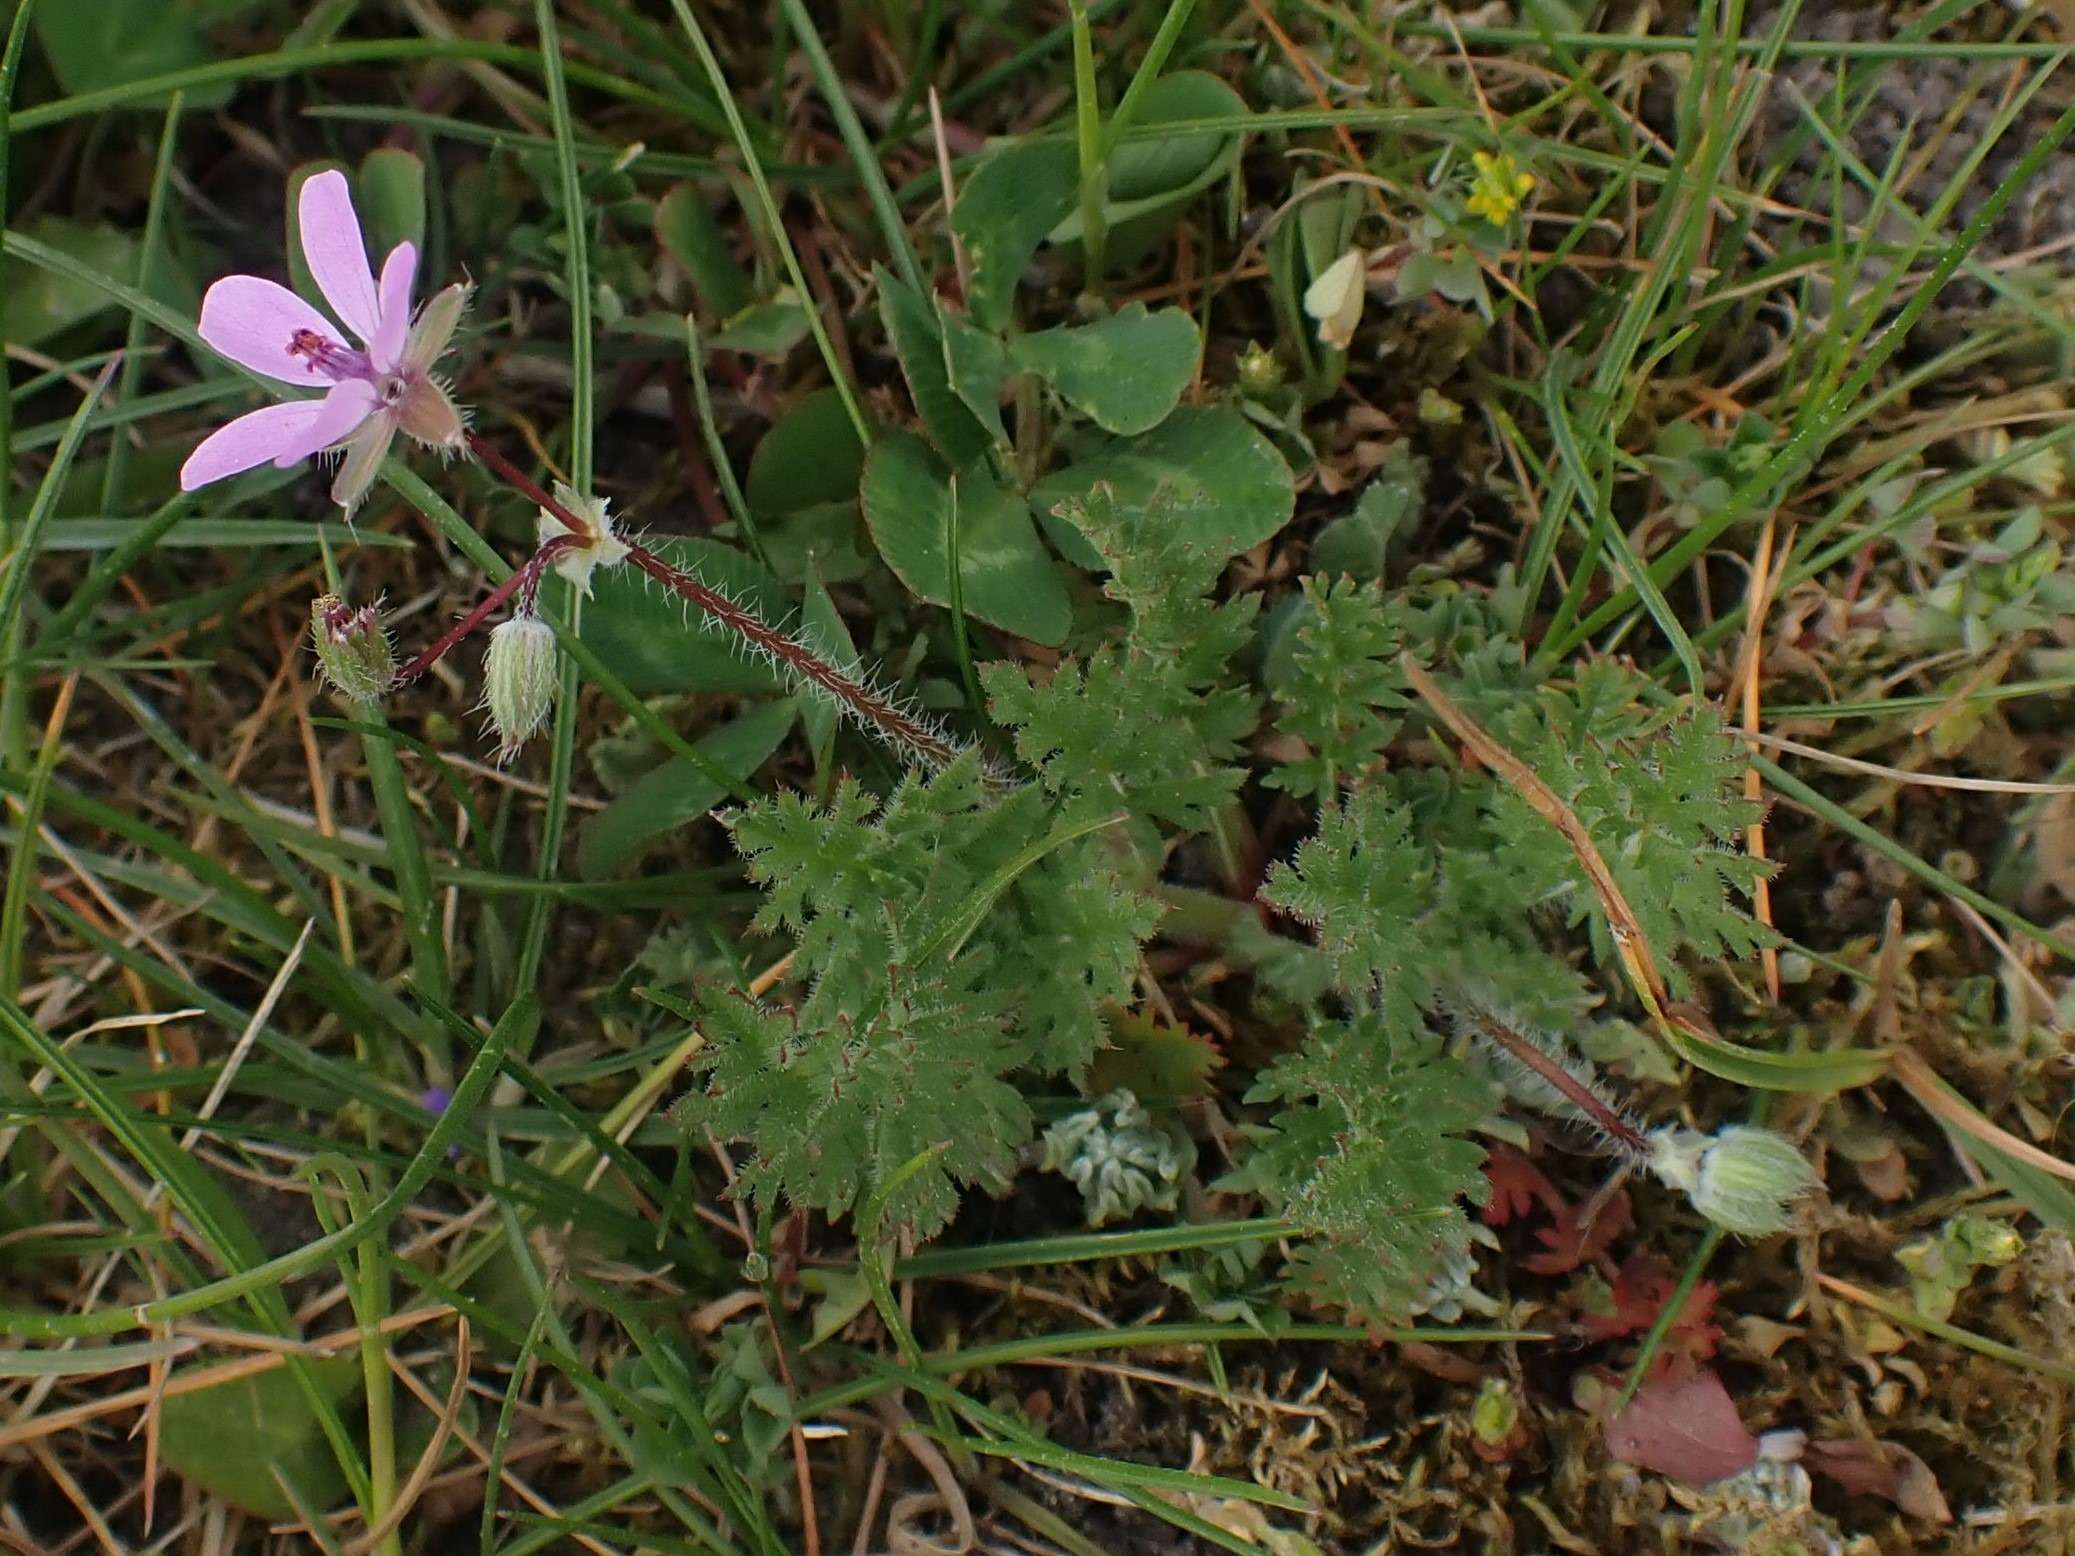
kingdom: Plantae
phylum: Tracheophyta
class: Magnoliopsida
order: Geraniales
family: Geraniaceae
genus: Erodium
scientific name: Erodium cicutarium
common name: Hejrenæb
